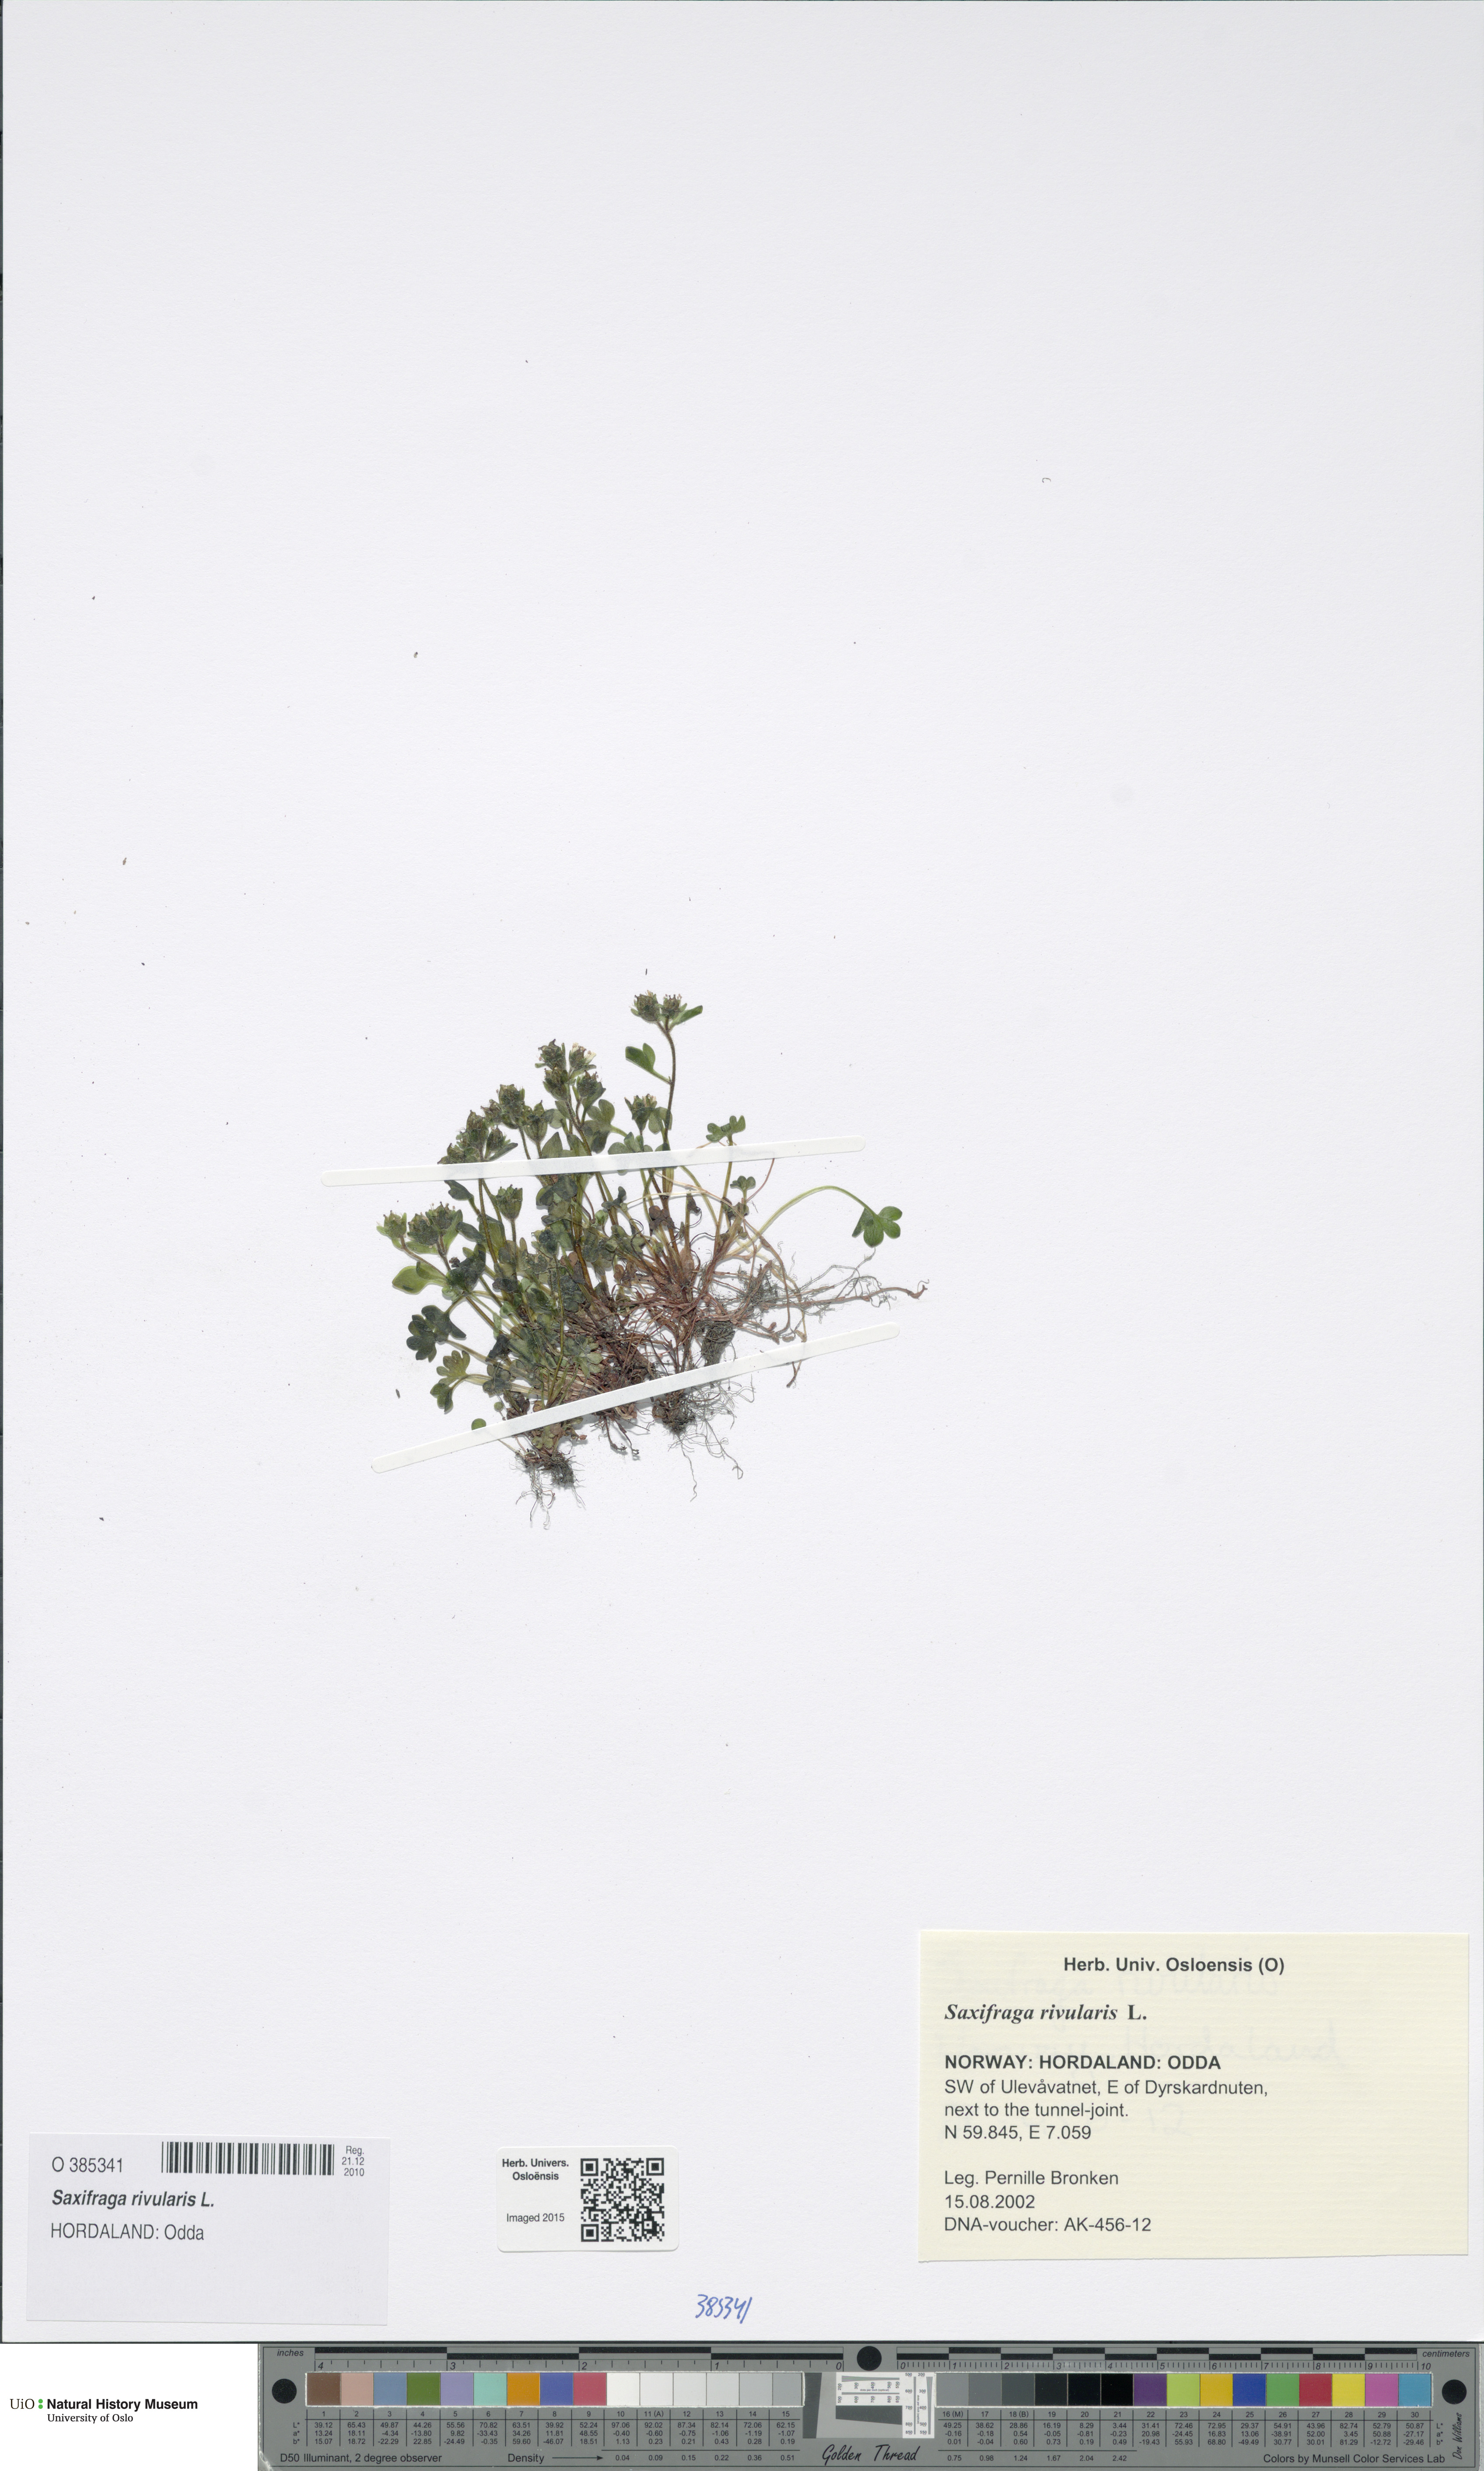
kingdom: Plantae
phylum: Tracheophyta
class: Magnoliopsida
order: Saxifragales
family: Saxifragaceae
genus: Saxifraga
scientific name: Saxifraga rivularis
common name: Highland saxifrage
